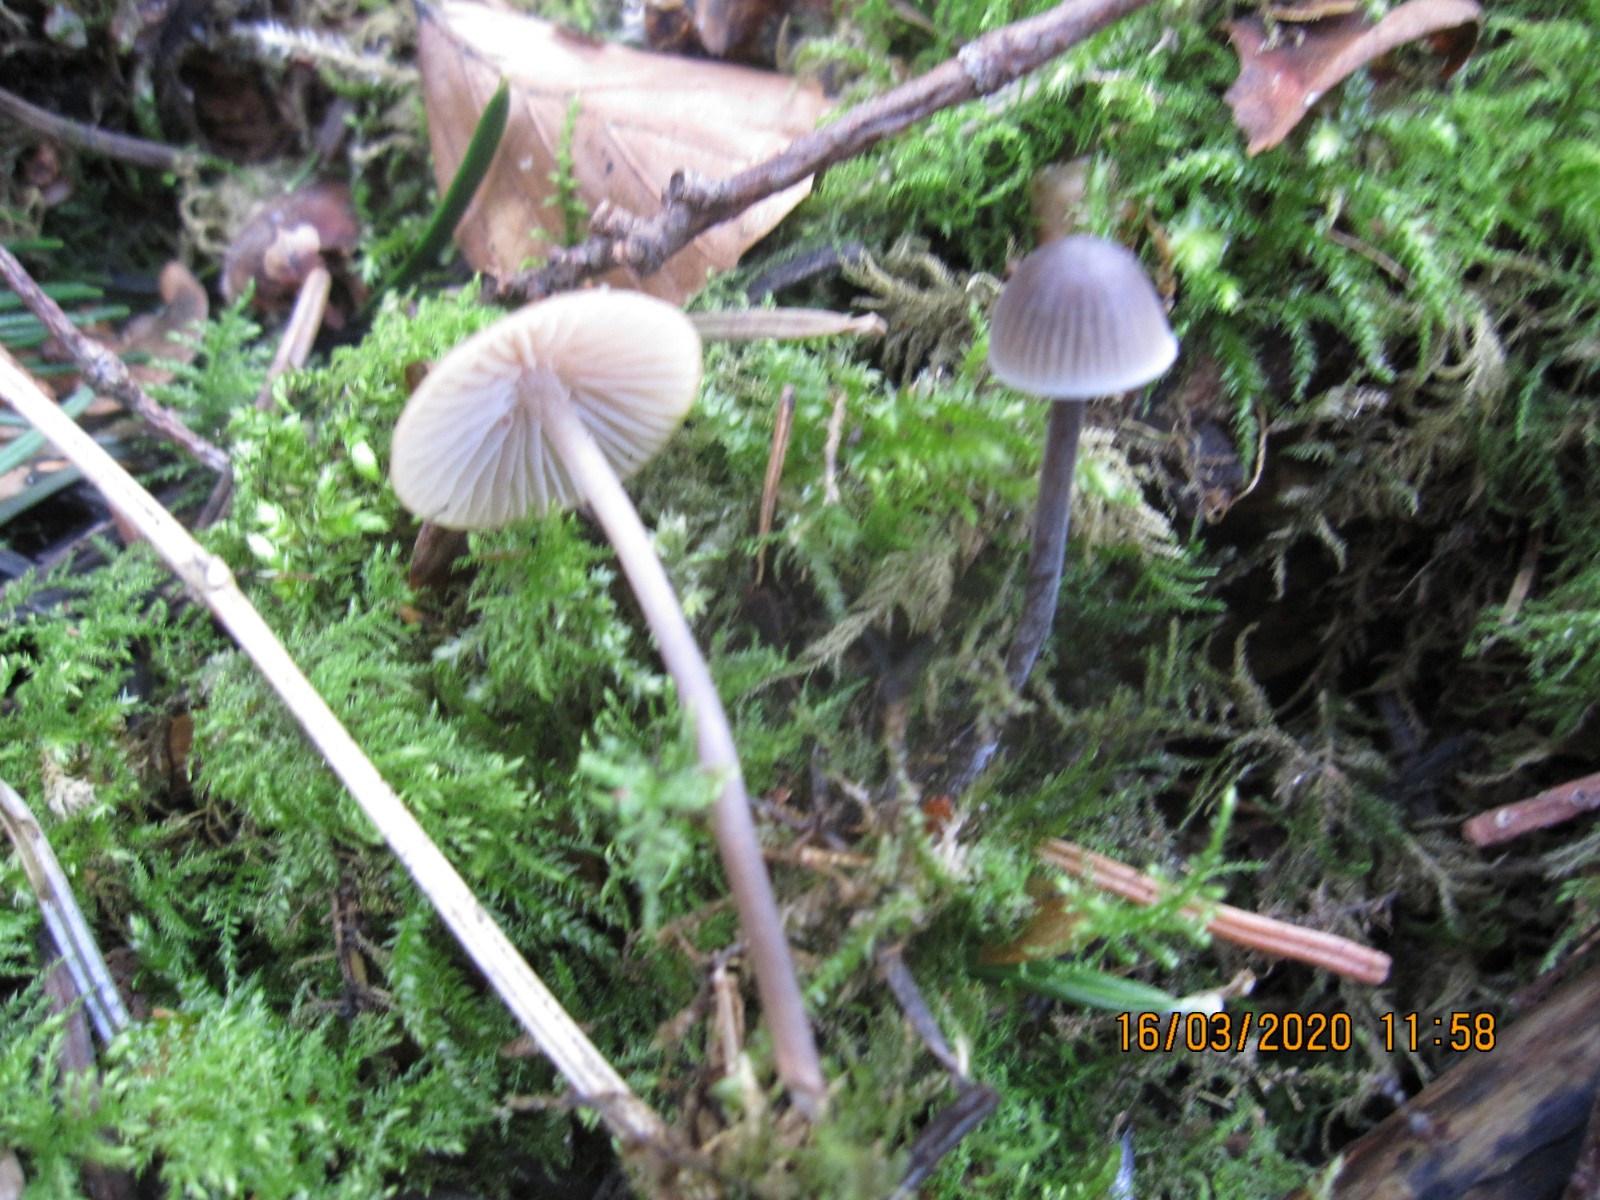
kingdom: Fungi
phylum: Basidiomycota
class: Agaricomycetes
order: Agaricales
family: Mycenaceae
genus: Mycena
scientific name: Mycena leptocephala
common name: klor-huesvamp
